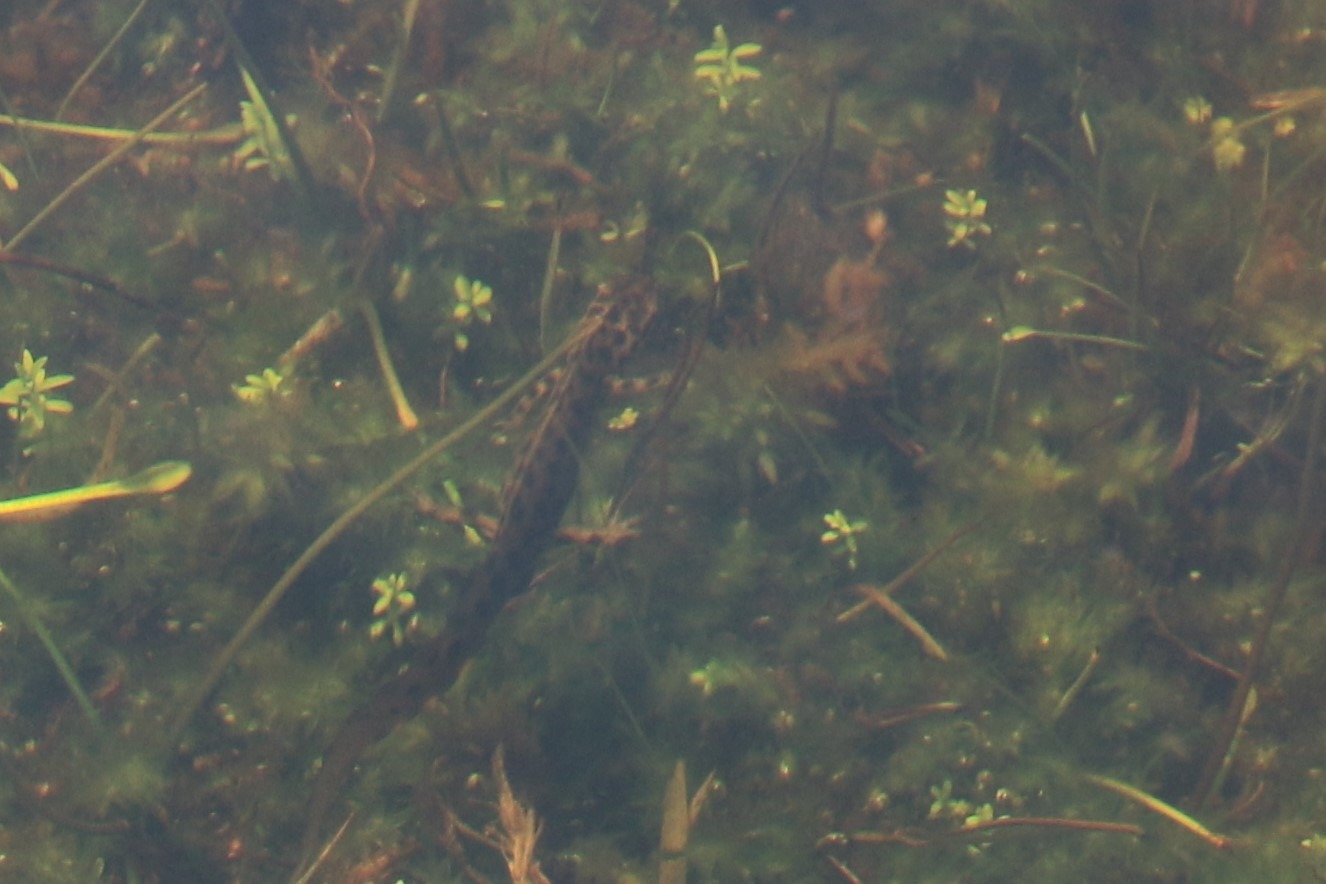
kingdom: Animalia
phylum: Chordata
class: Amphibia
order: Caudata
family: Salamandridae
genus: Lissotriton
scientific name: Lissotriton vulgaris
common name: Lille vandsalamander
